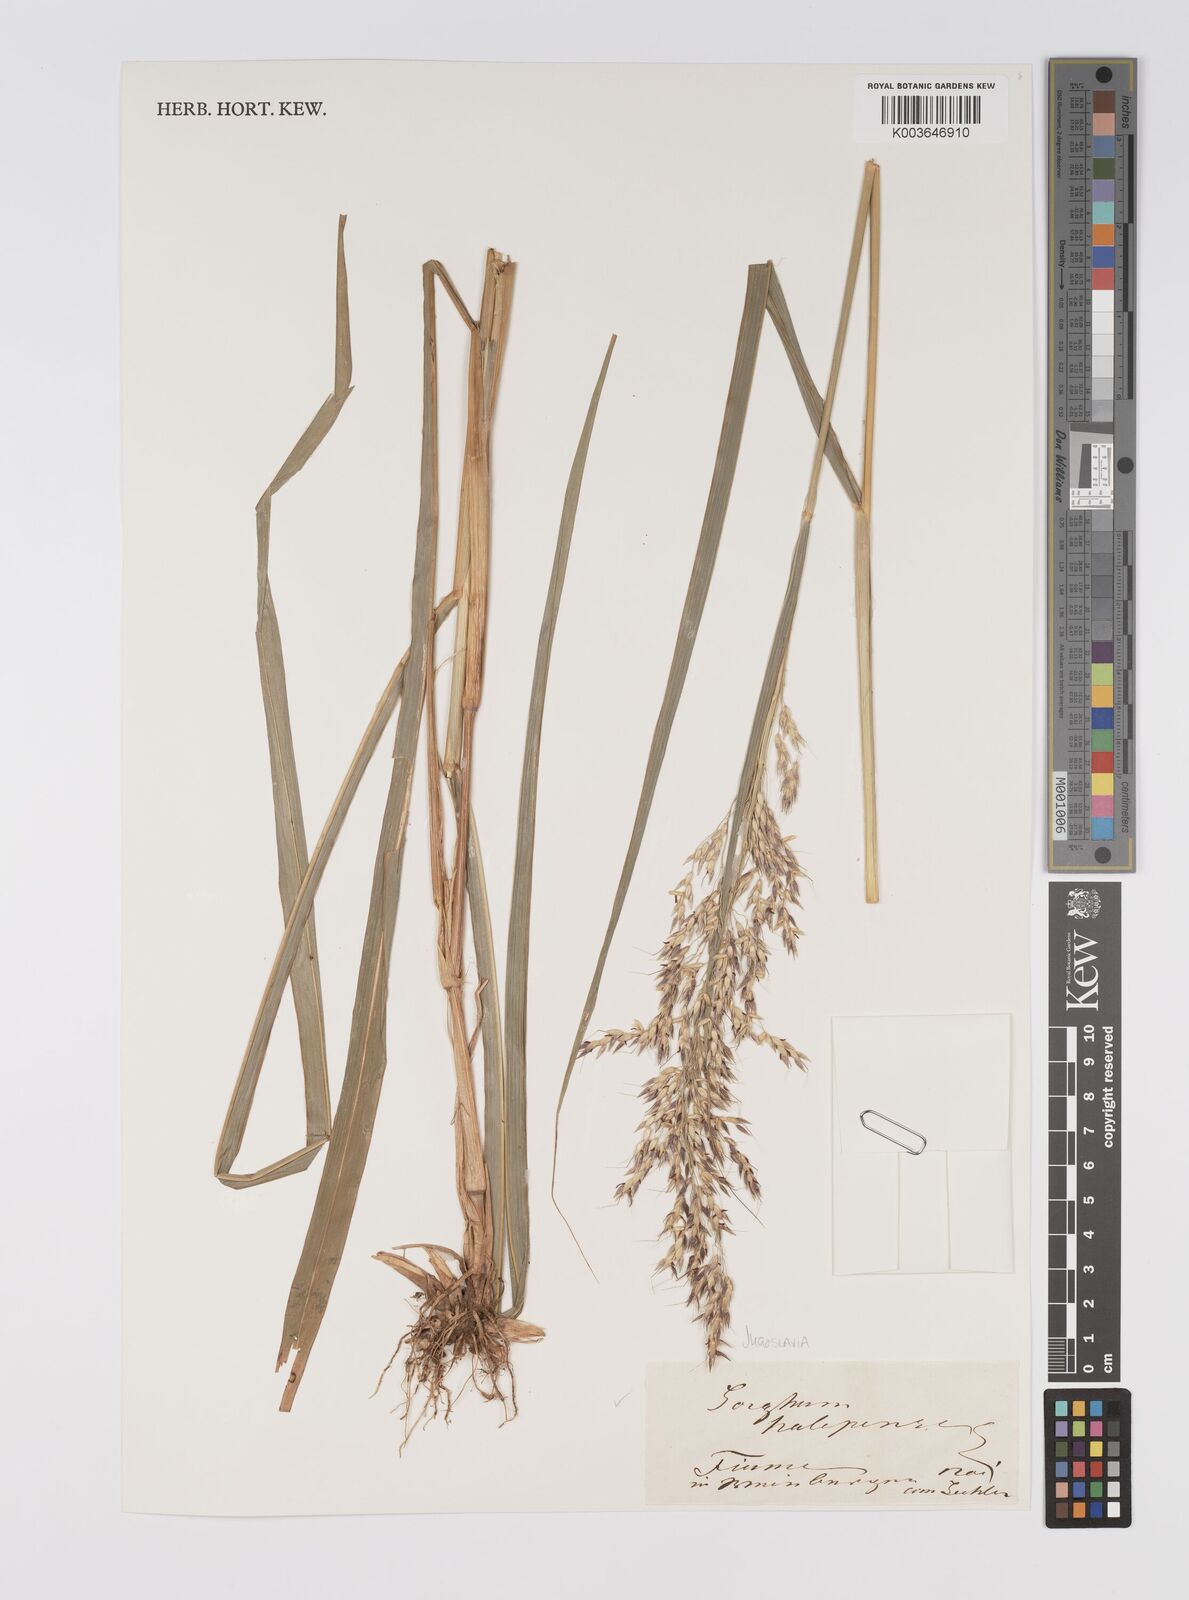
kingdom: Plantae
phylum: Tracheophyta
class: Liliopsida
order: Poales
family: Poaceae
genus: Sorghum
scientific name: Sorghum halepense
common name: Johnson-grass
